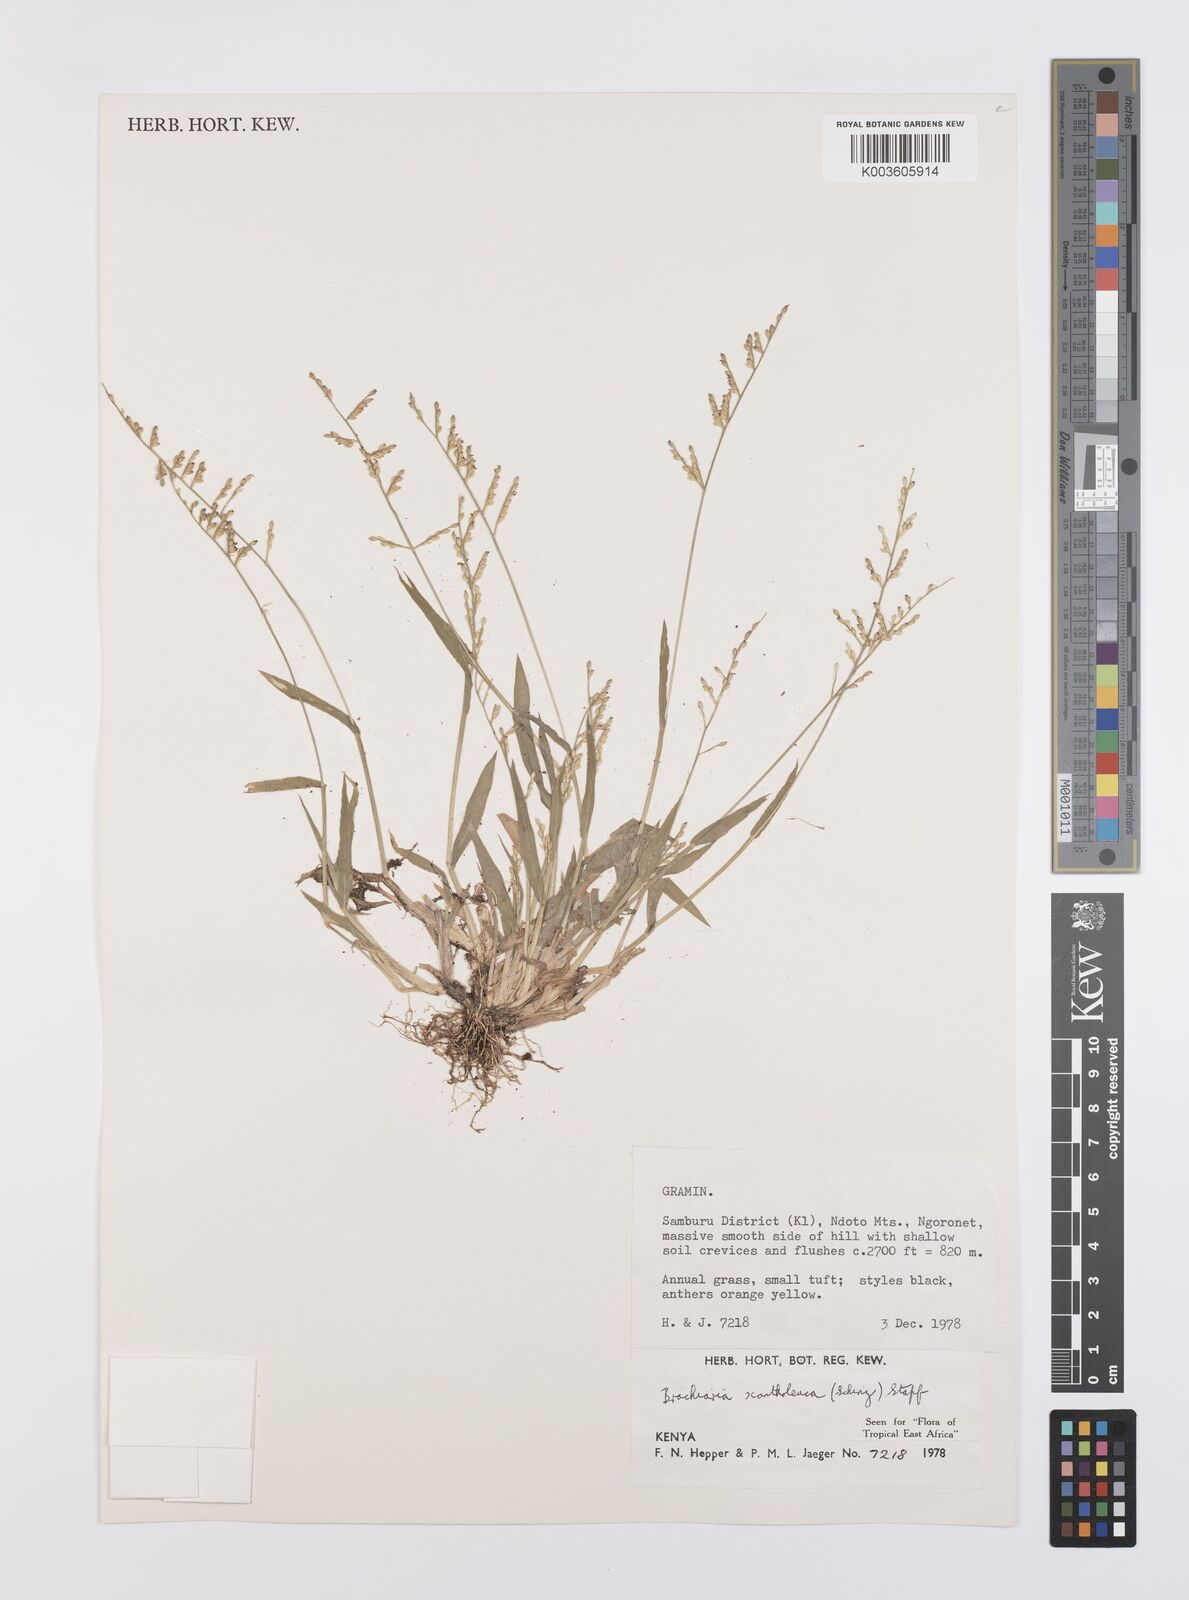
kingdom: Plantae
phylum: Tracheophyta
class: Liliopsida
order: Poales
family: Poaceae
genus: Urochloa
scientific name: Urochloa xantholeuca
